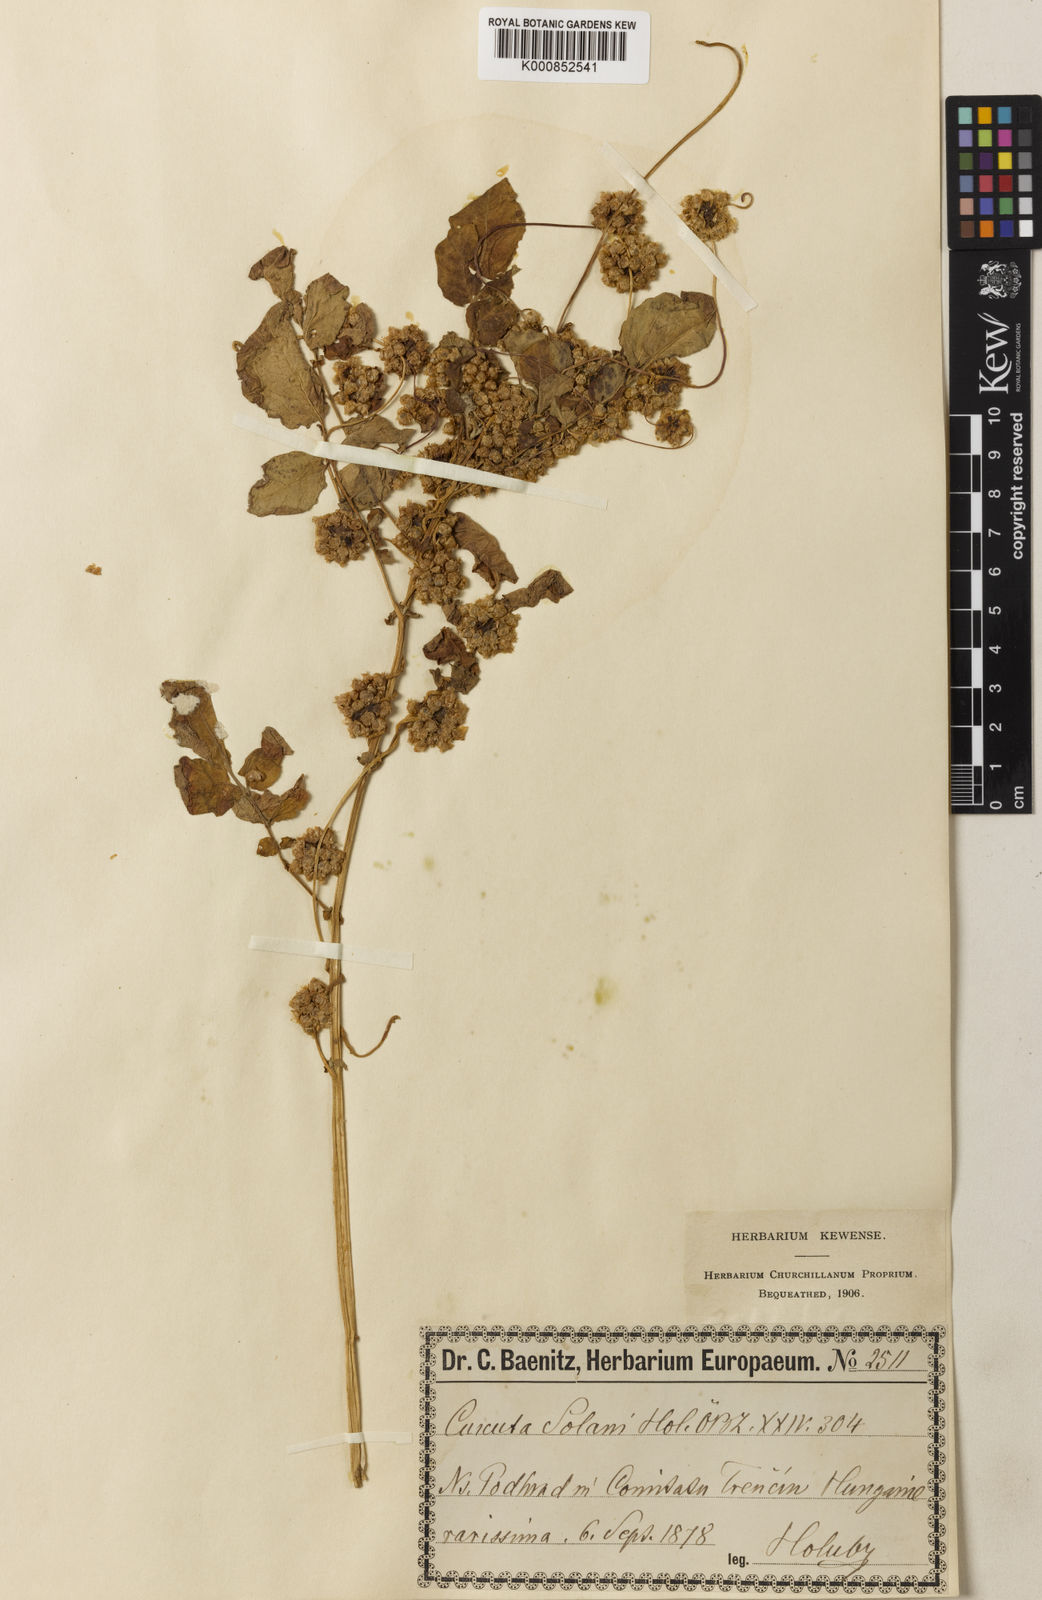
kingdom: Plantae
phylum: Tracheophyta
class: Magnoliopsida
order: Solanales
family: Convolvulaceae
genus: Cuscuta
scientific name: Cuscuta europaea
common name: Greater dodder
